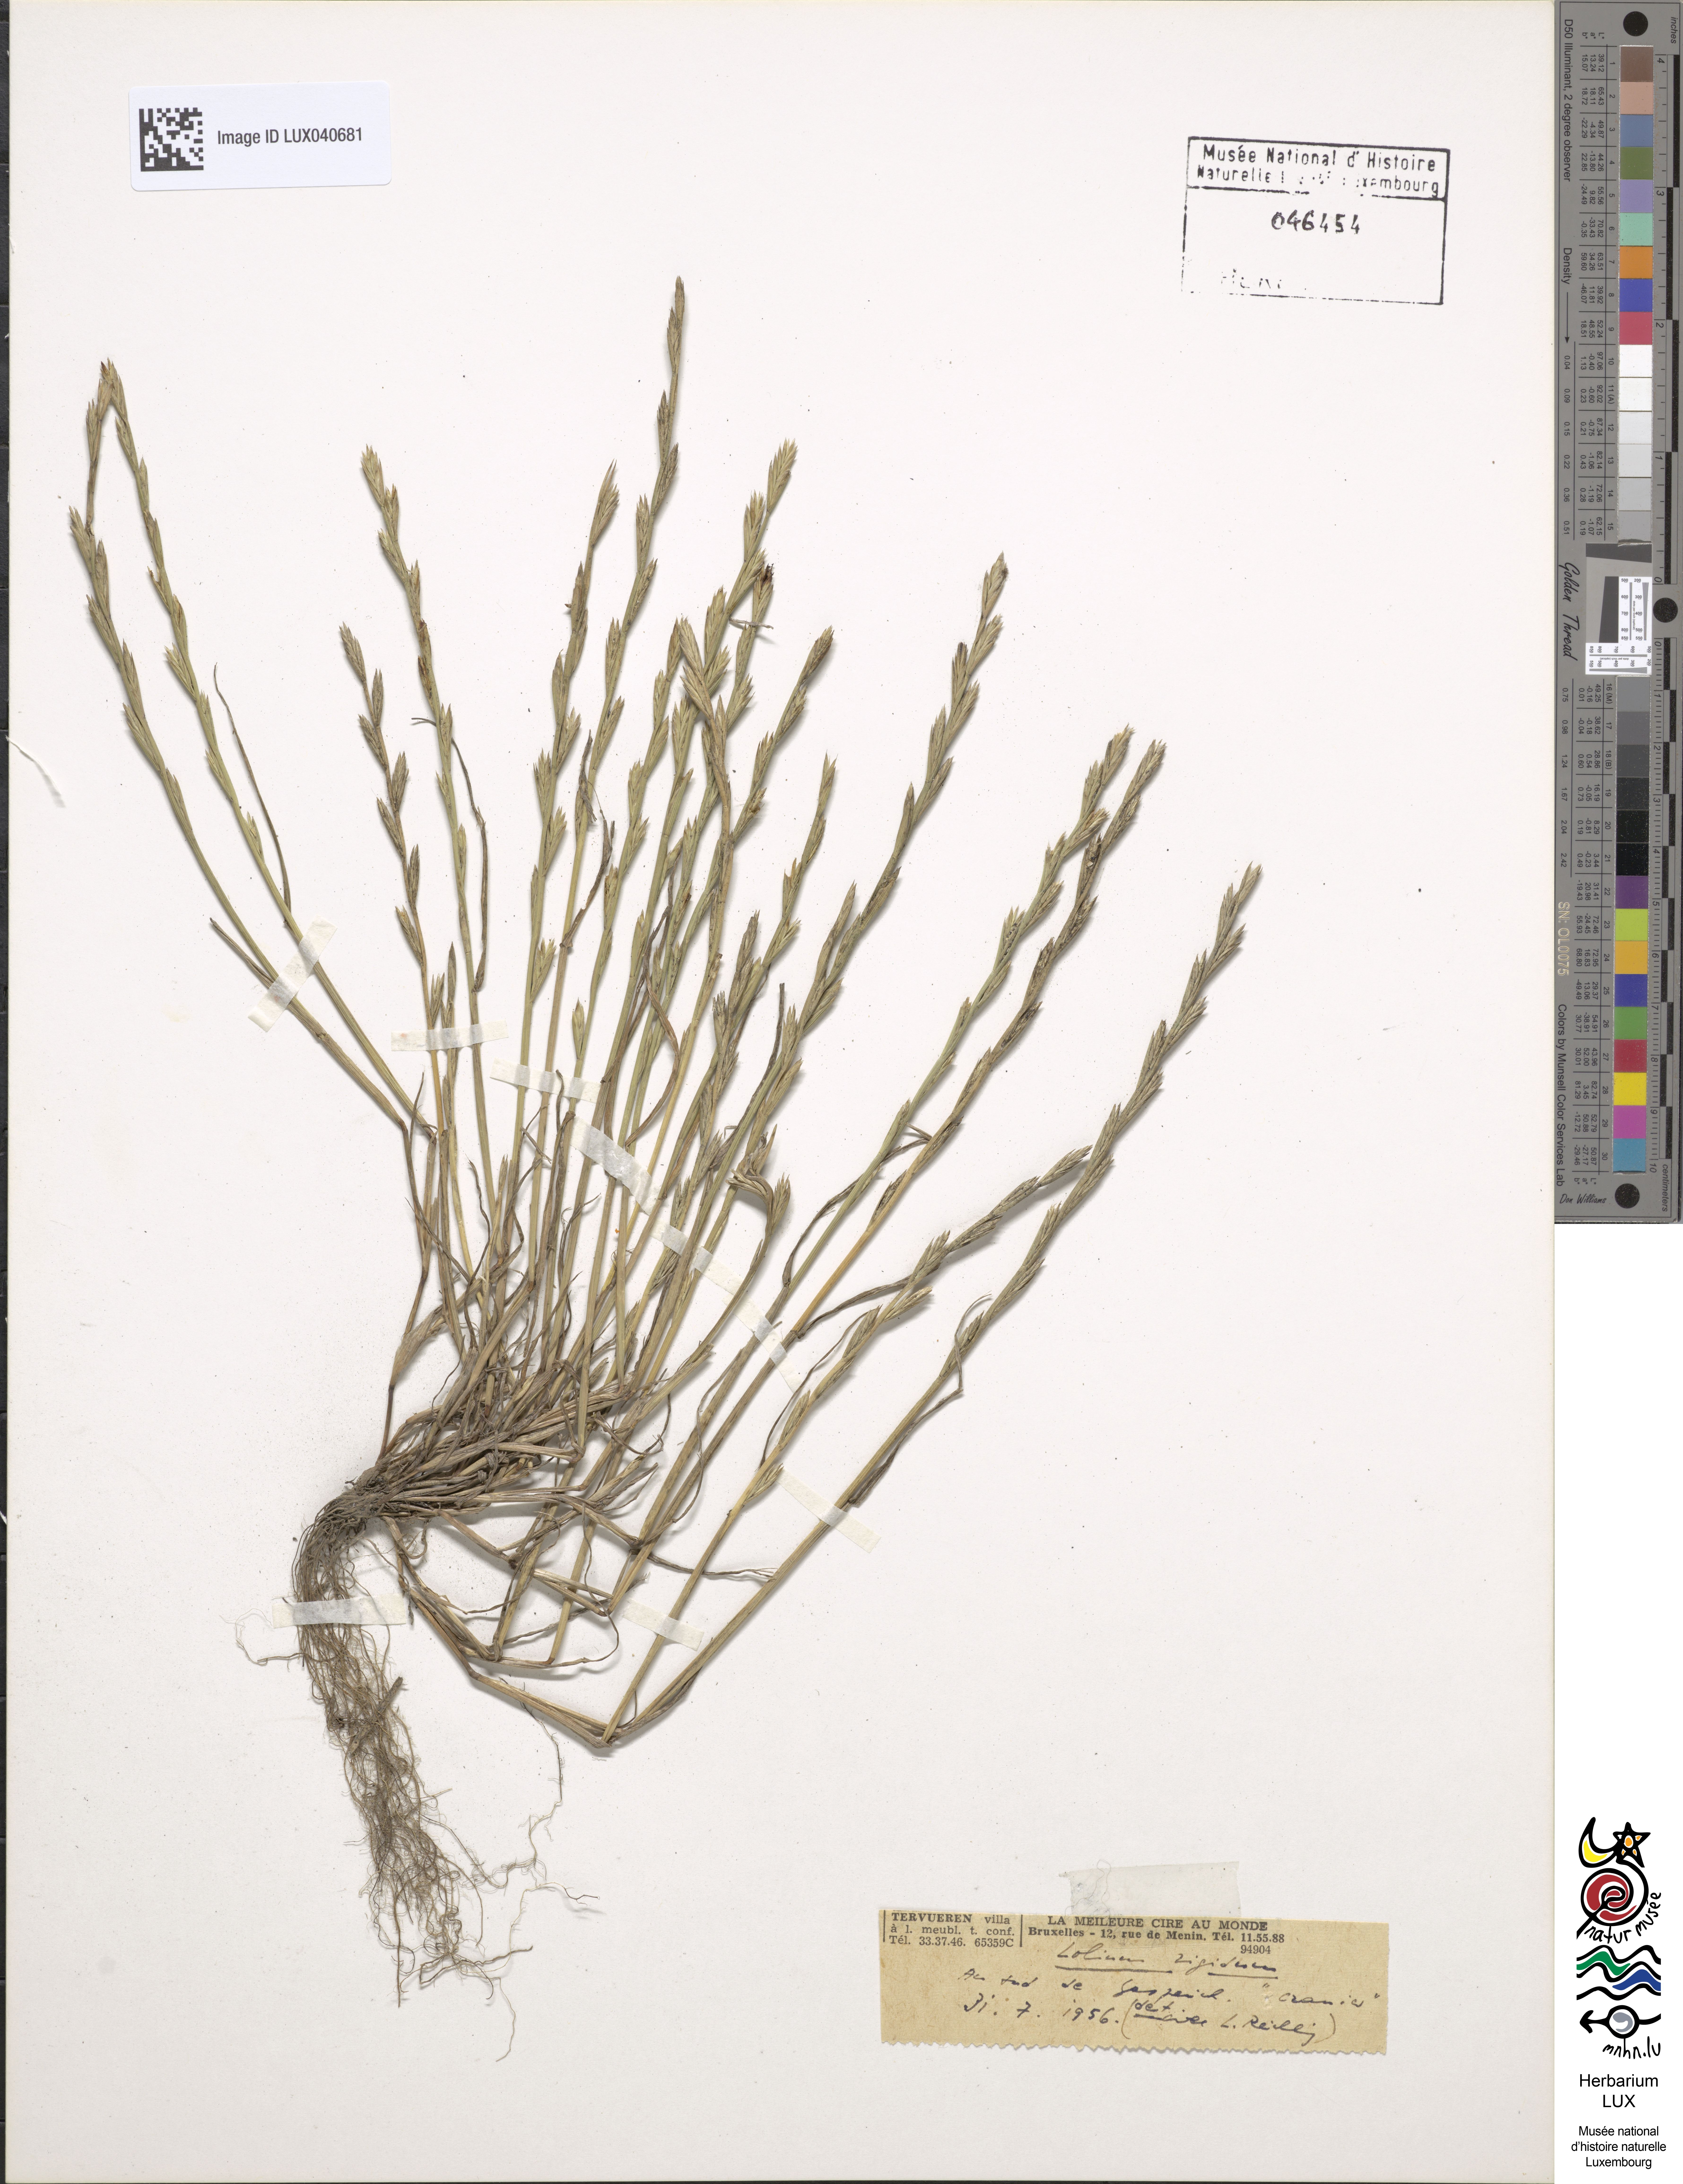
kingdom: Plantae
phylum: Tracheophyta
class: Liliopsida
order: Poales
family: Poaceae
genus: Lolium
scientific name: Lolium rigidum
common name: Wimmera ryegrass
